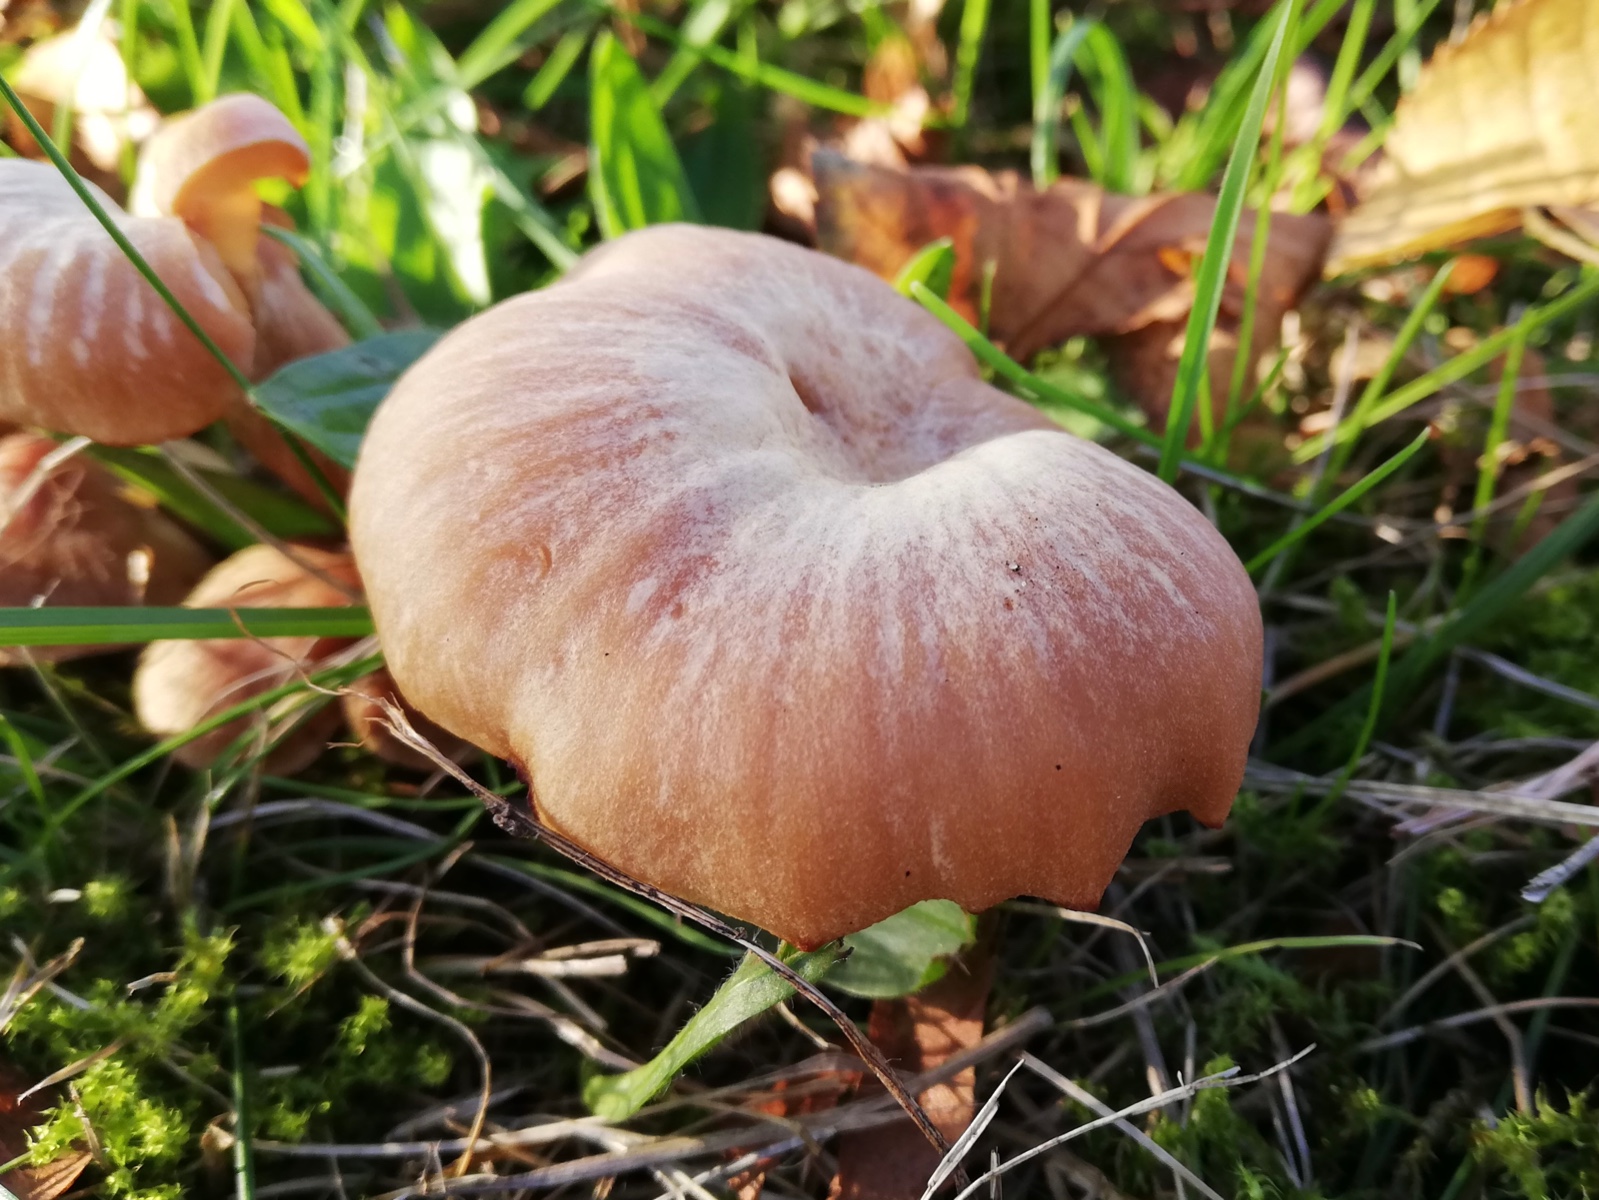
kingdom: Fungi
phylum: Basidiomycota
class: Agaricomycetes
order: Agaricales
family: Hydnangiaceae
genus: Laccaria
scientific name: Laccaria
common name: ametysthat
